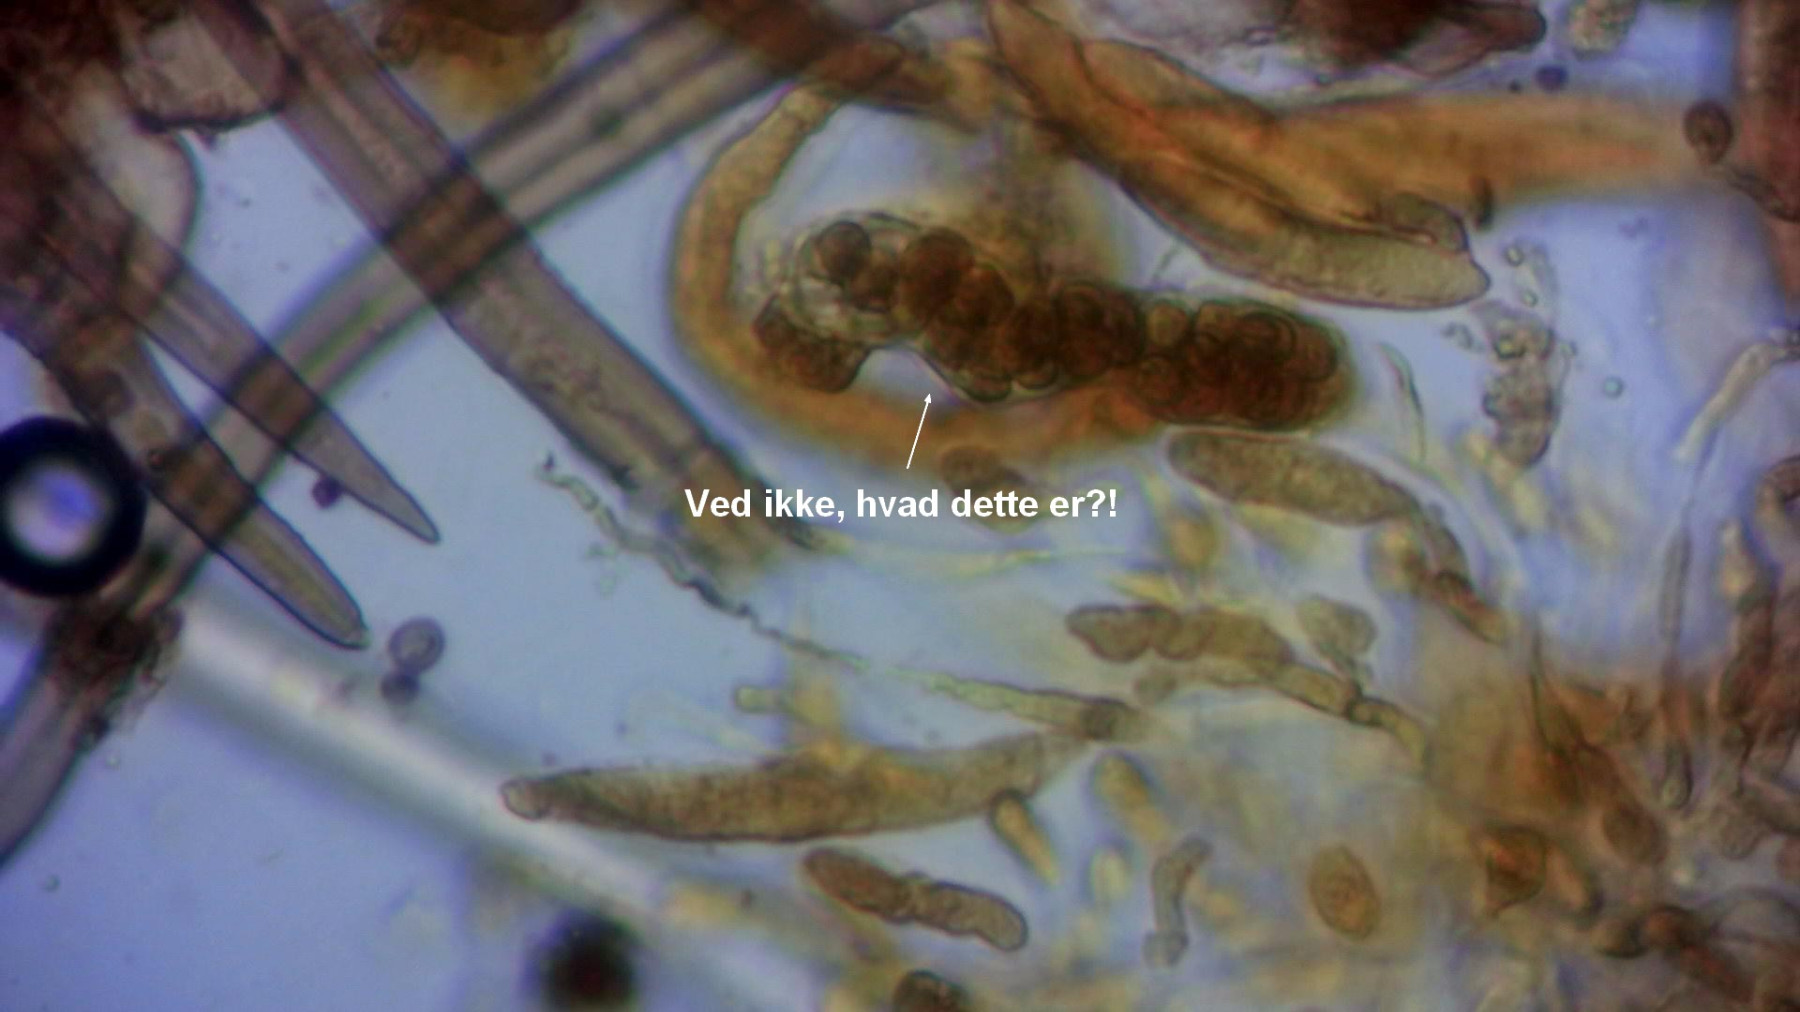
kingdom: Fungi
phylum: Ascomycota
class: Sordariomycetes
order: Sordariales
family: Helminthosphaeriaceae
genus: Echinosphaeria
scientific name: Echinosphaeria canescens
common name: brun børstekerne
